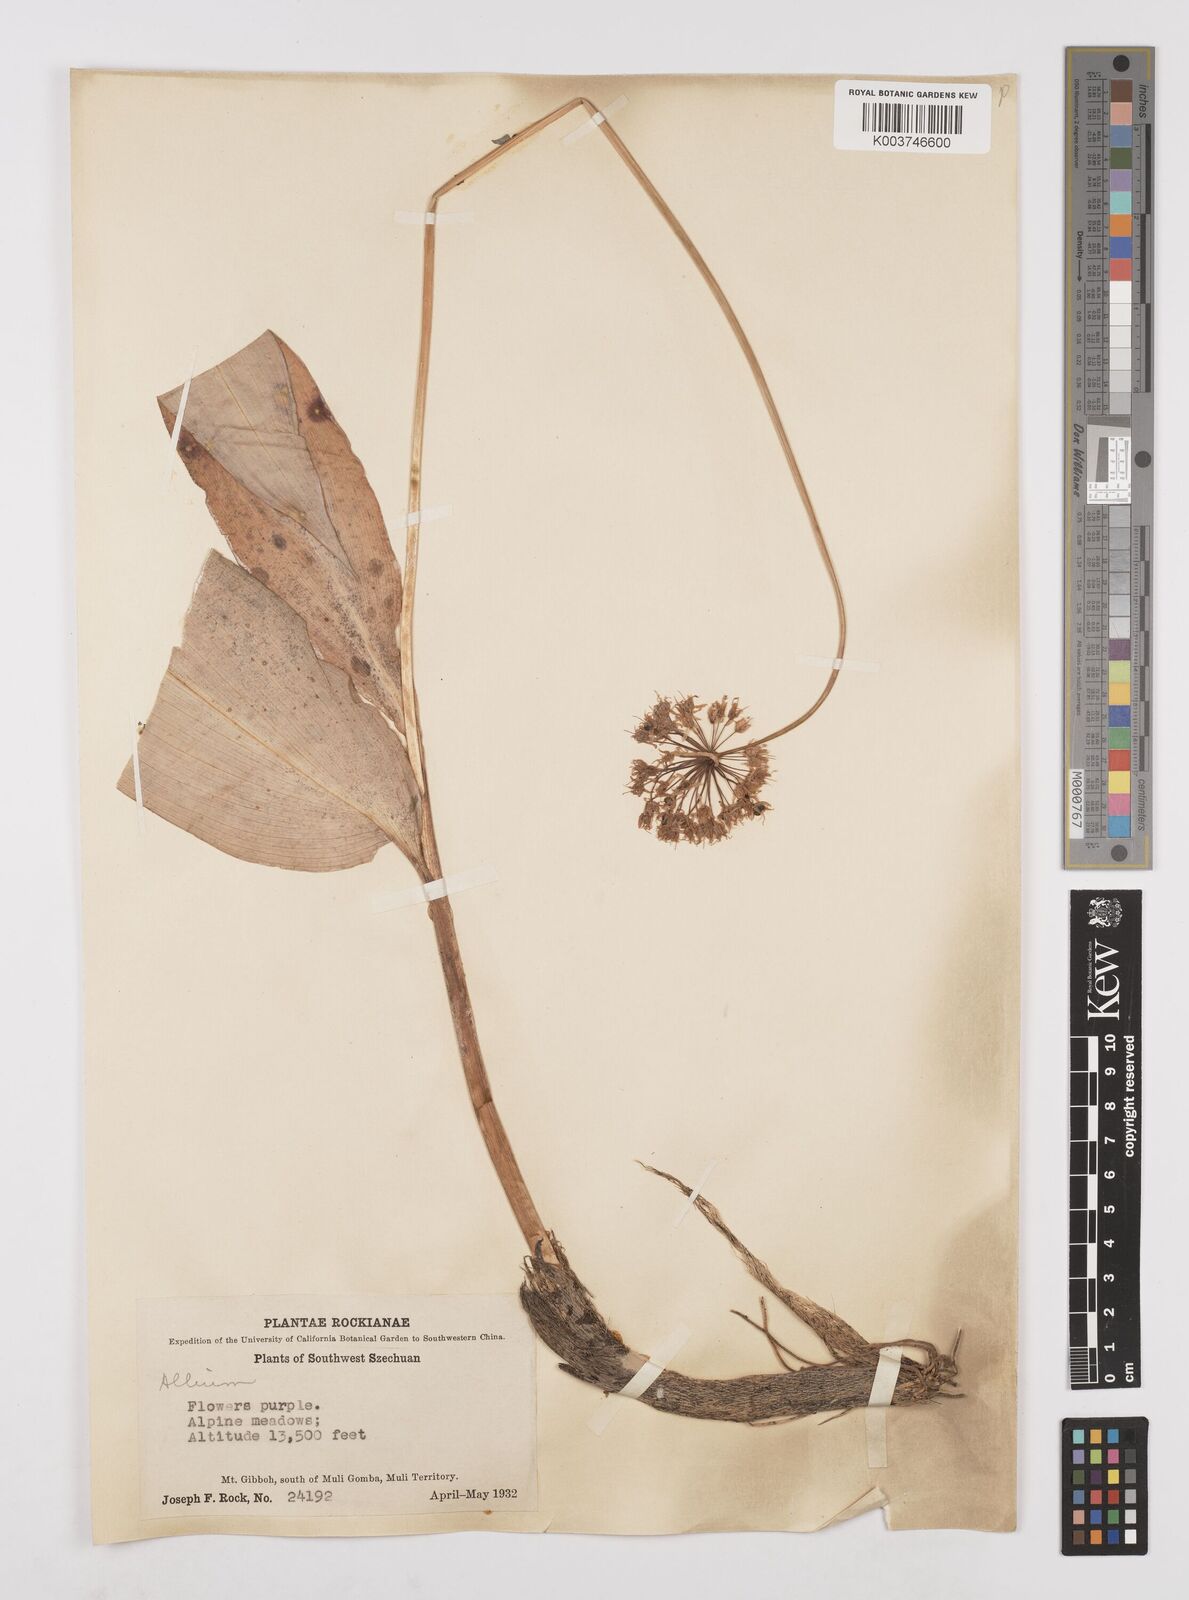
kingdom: Plantae
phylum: Tracheophyta
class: Liliopsida
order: Asparagales
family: Amaryllidaceae
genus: Allium
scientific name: Allium victorialis
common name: Alpine leek
